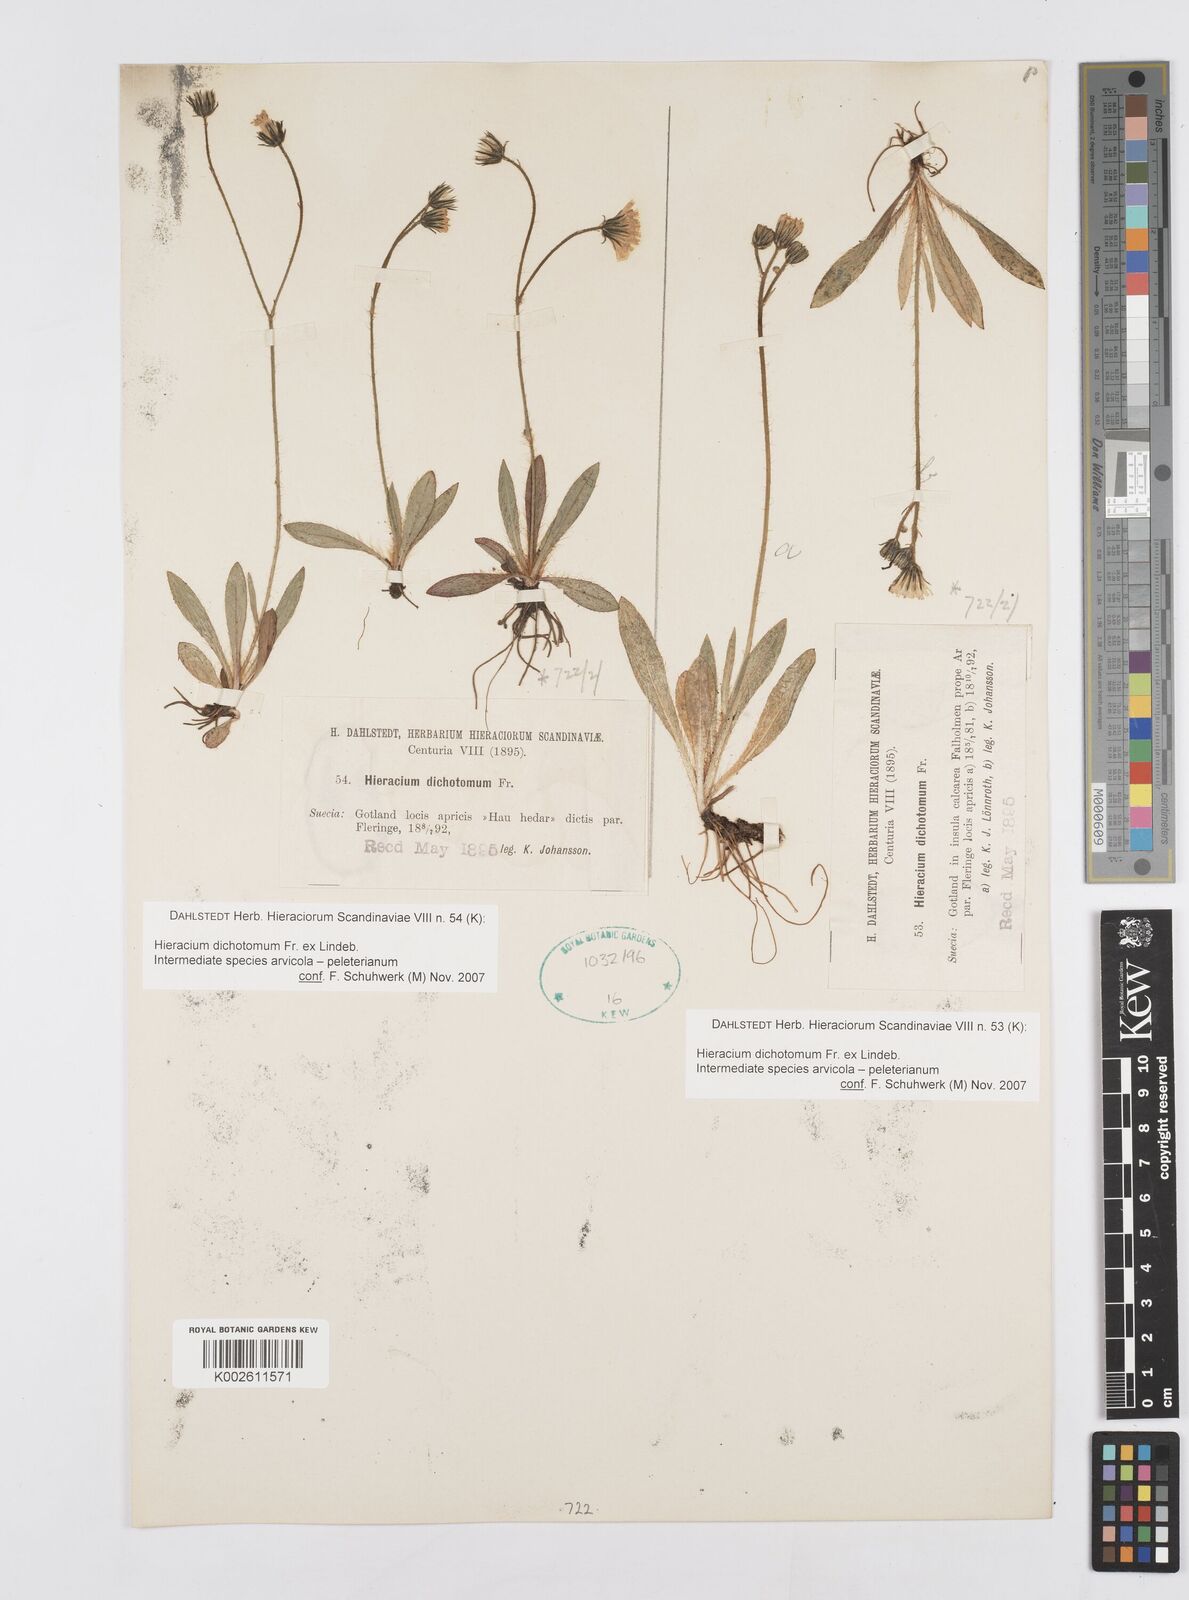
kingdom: Plantae
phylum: Tracheophyta
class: Magnoliopsida
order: Asterales
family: Asteraceae
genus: Hieracium
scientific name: Hieracium
